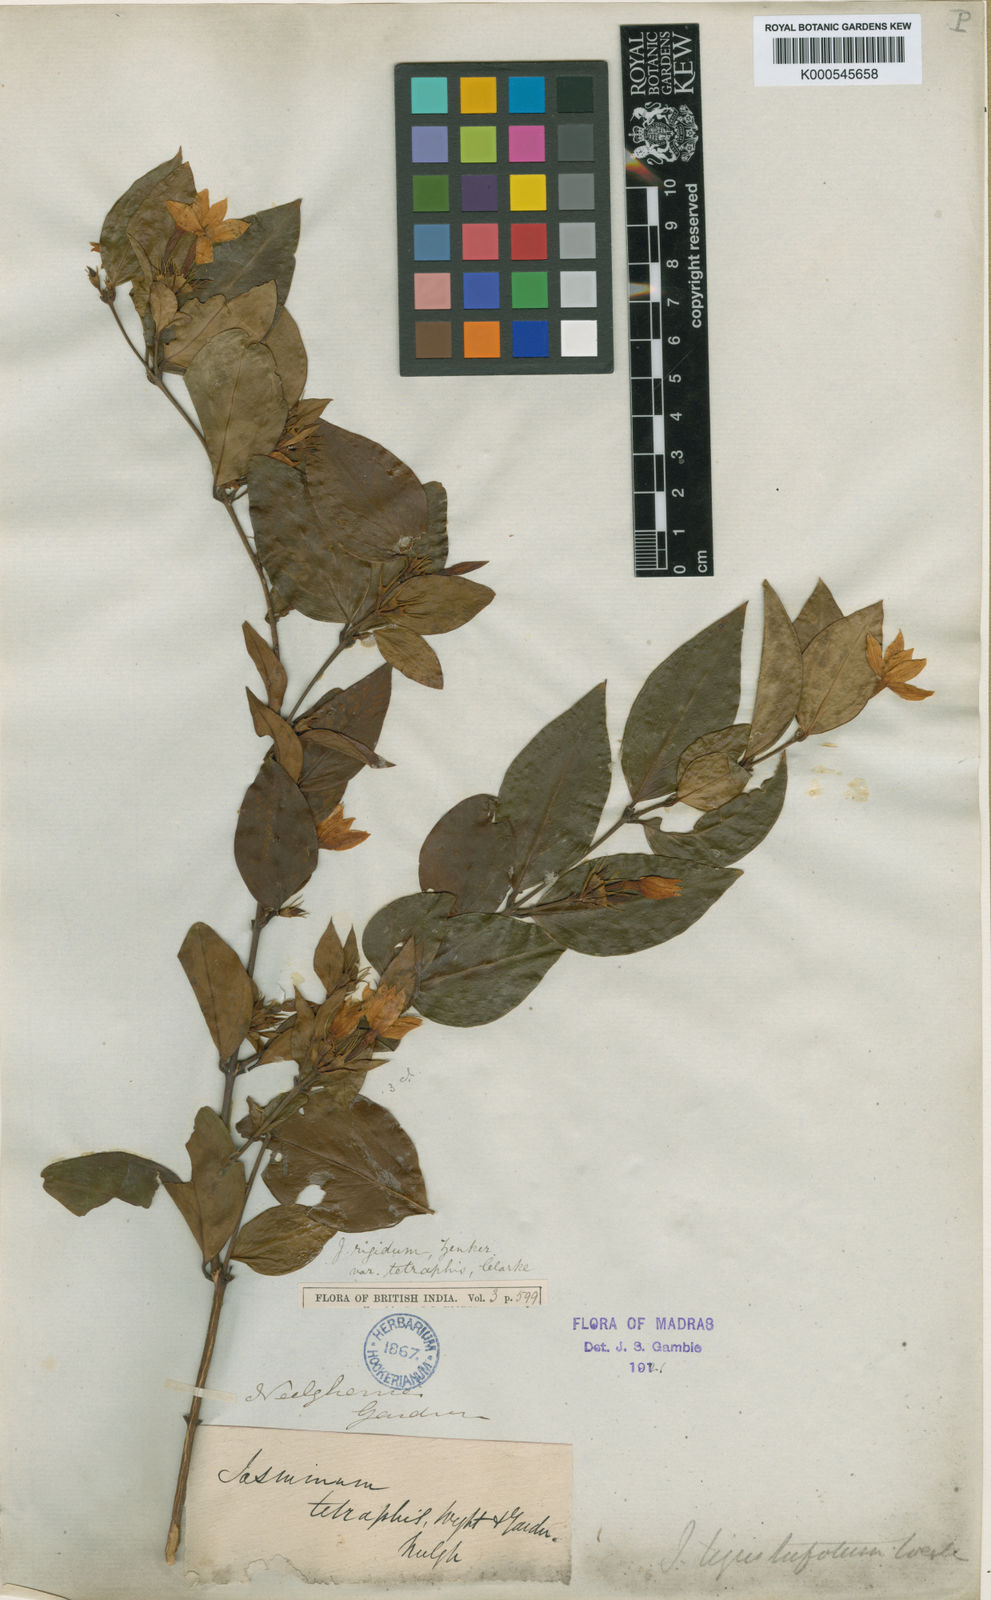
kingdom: Plantae
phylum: Tracheophyta
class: Magnoliopsida
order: Lamiales
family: Oleaceae
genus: Jasminum
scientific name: Jasminum cuspidatum
